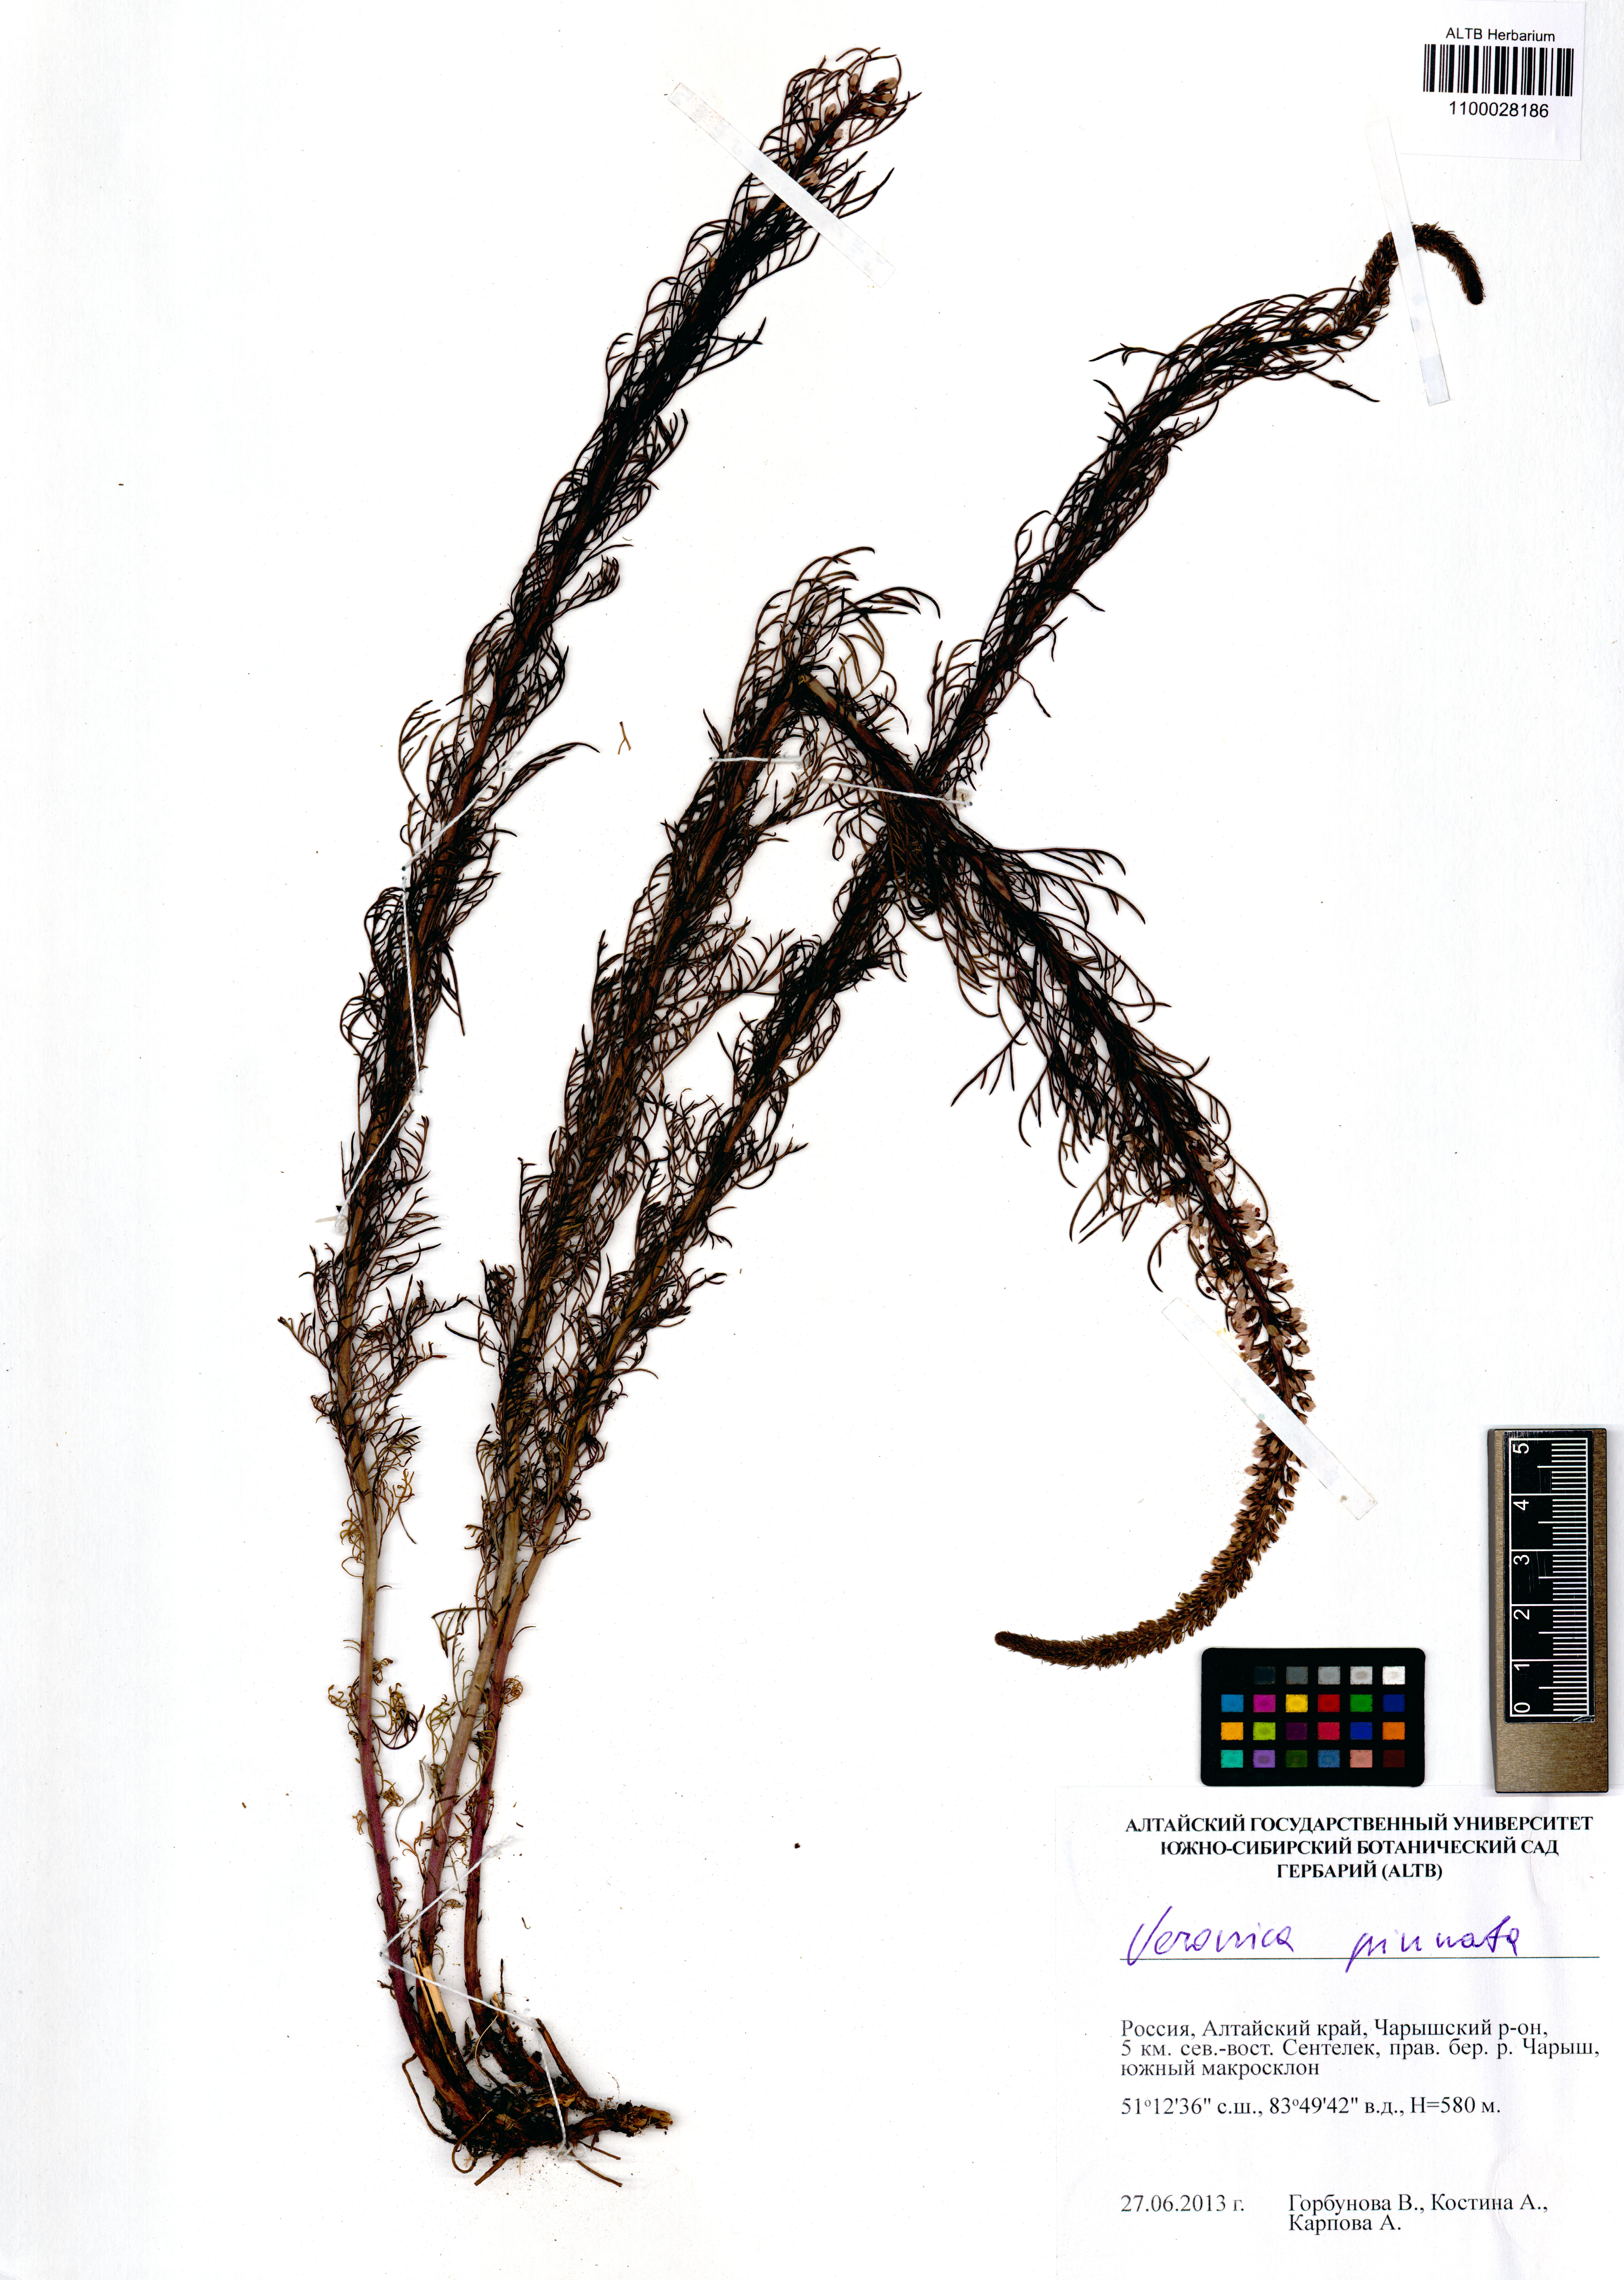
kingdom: Plantae
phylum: Tracheophyta
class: Magnoliopsida
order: Lamiales
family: Plantaginaceae
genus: Veronica
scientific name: Veronica pinnata
